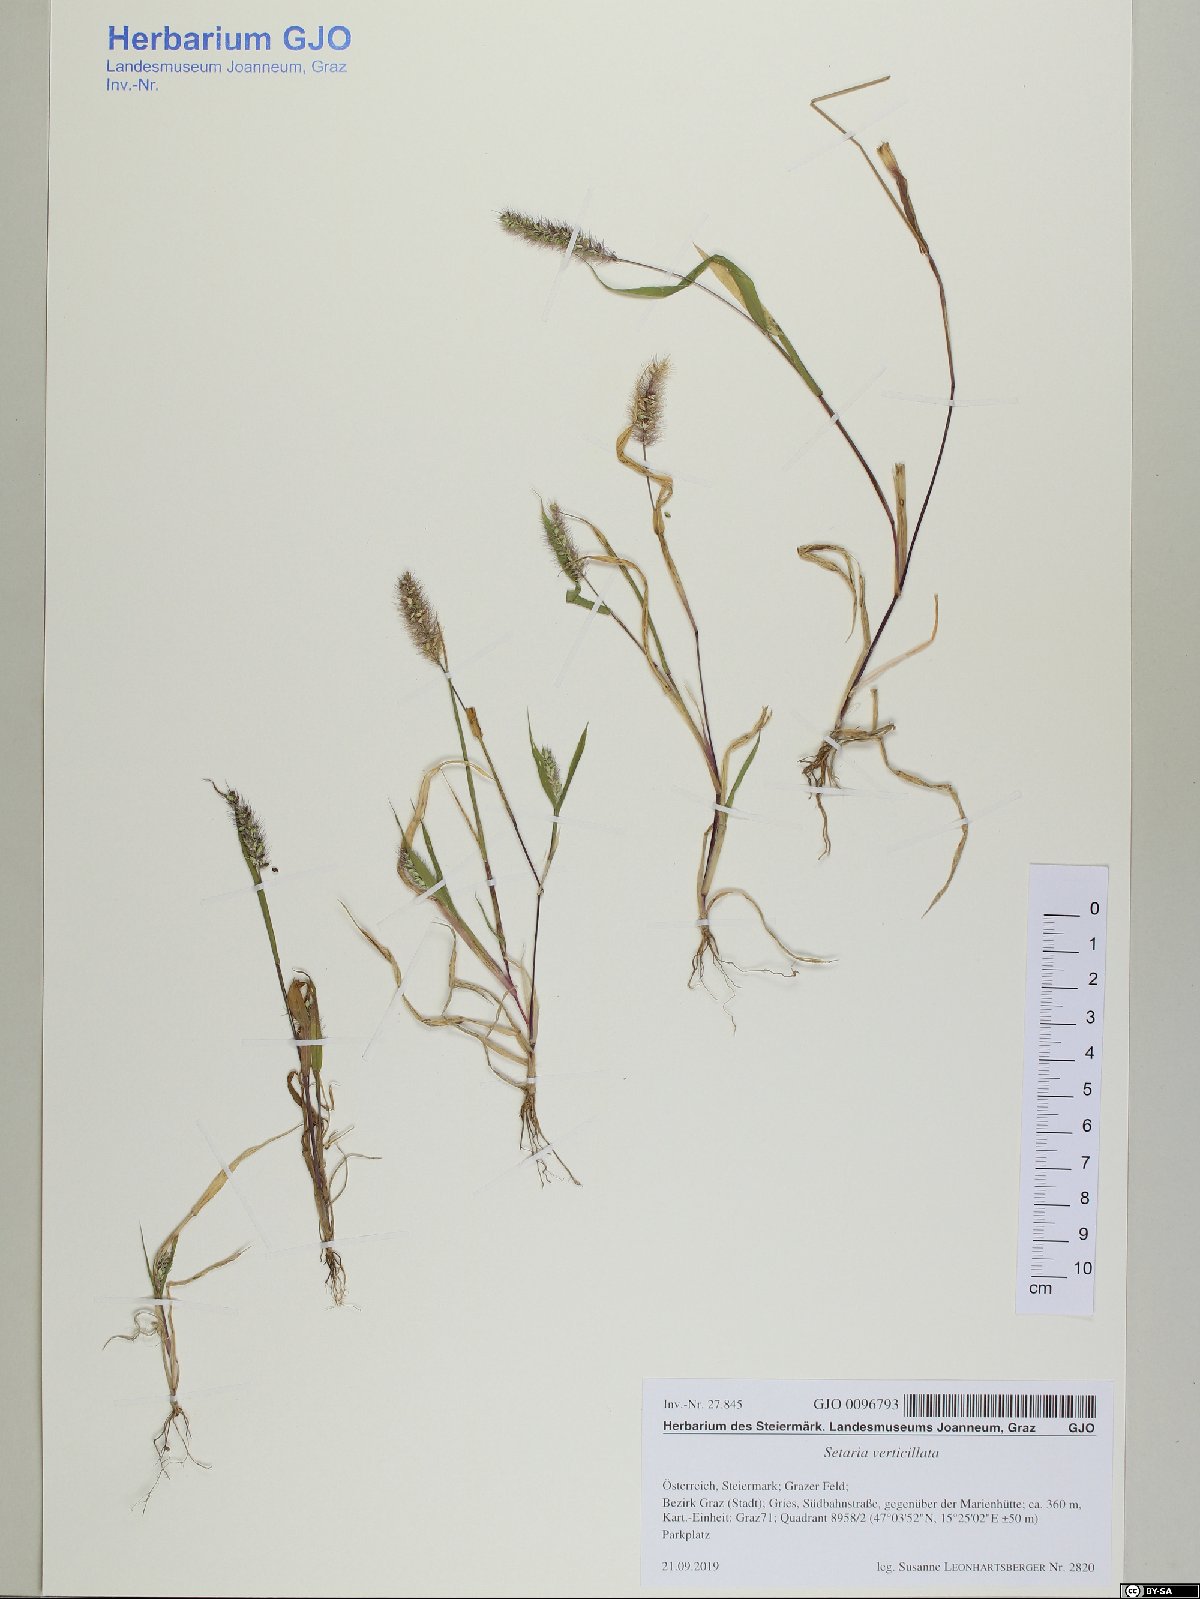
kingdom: Plantae
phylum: Tracheophyta
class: Liliopsida
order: Poales
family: Poaceae
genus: Setaria
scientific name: Setaria verticillata
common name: Hooked bristlegrass
